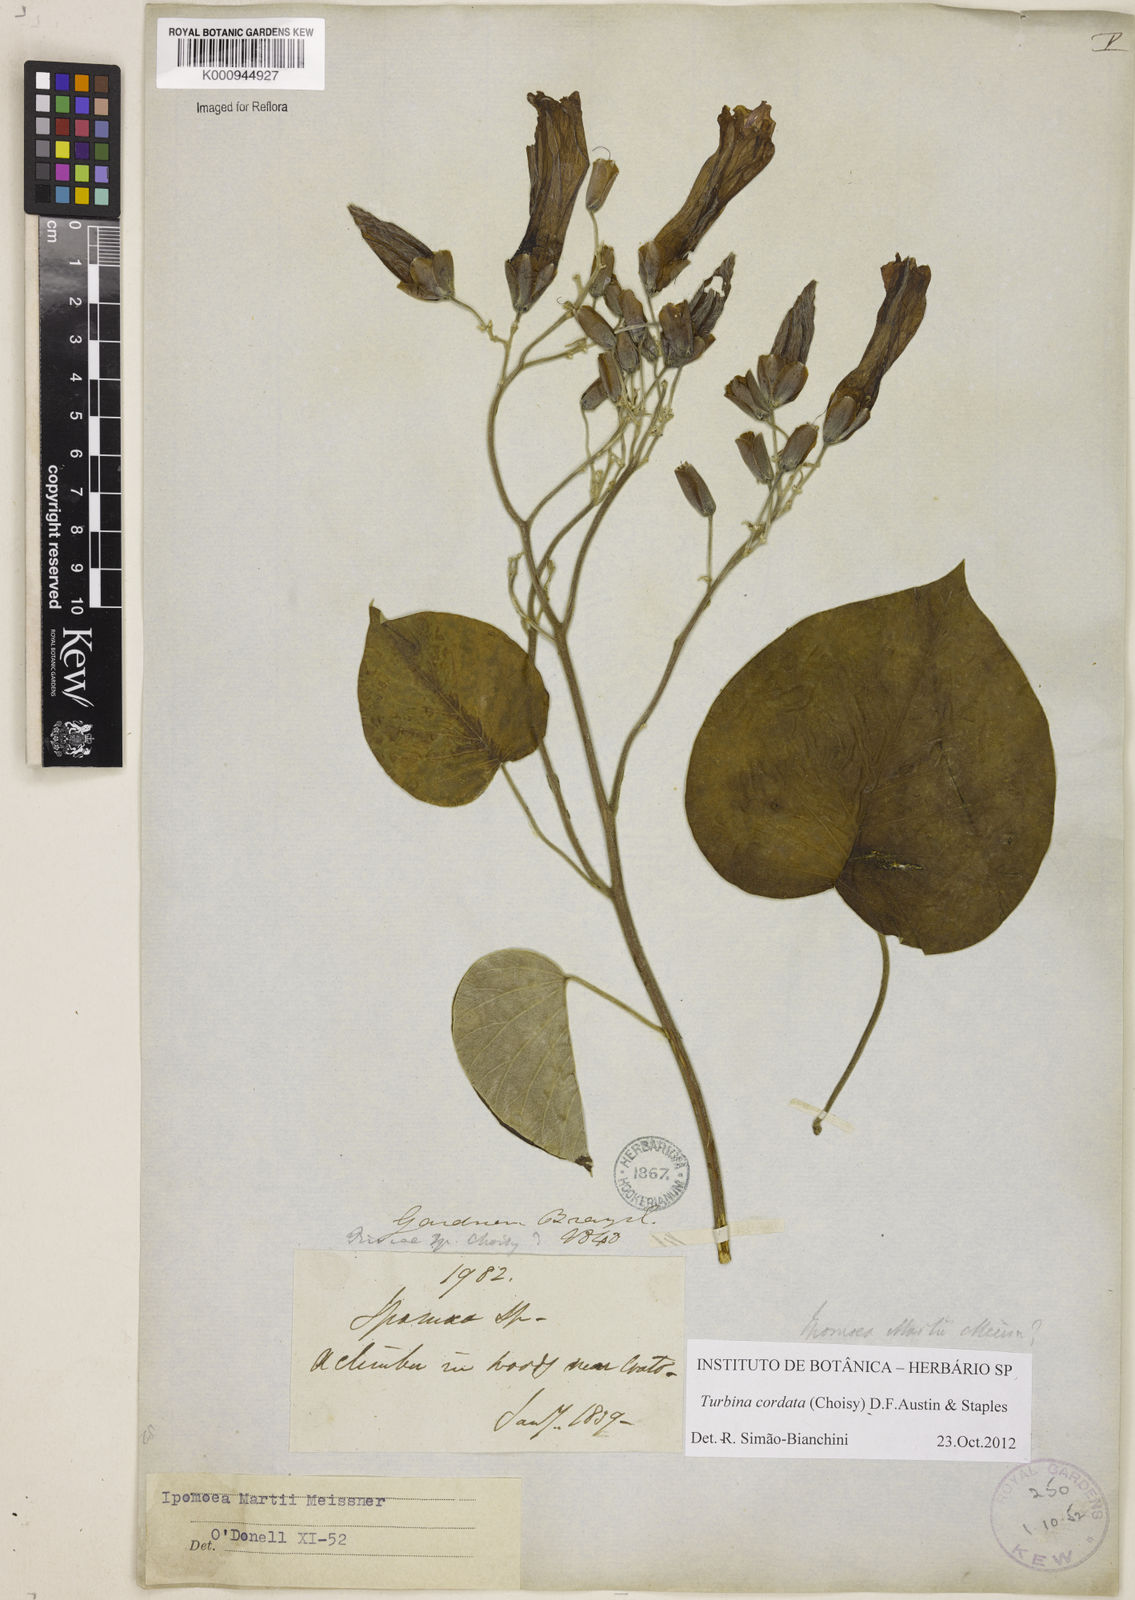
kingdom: Animalia
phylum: Mollusca
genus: Turbina
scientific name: Turbina
